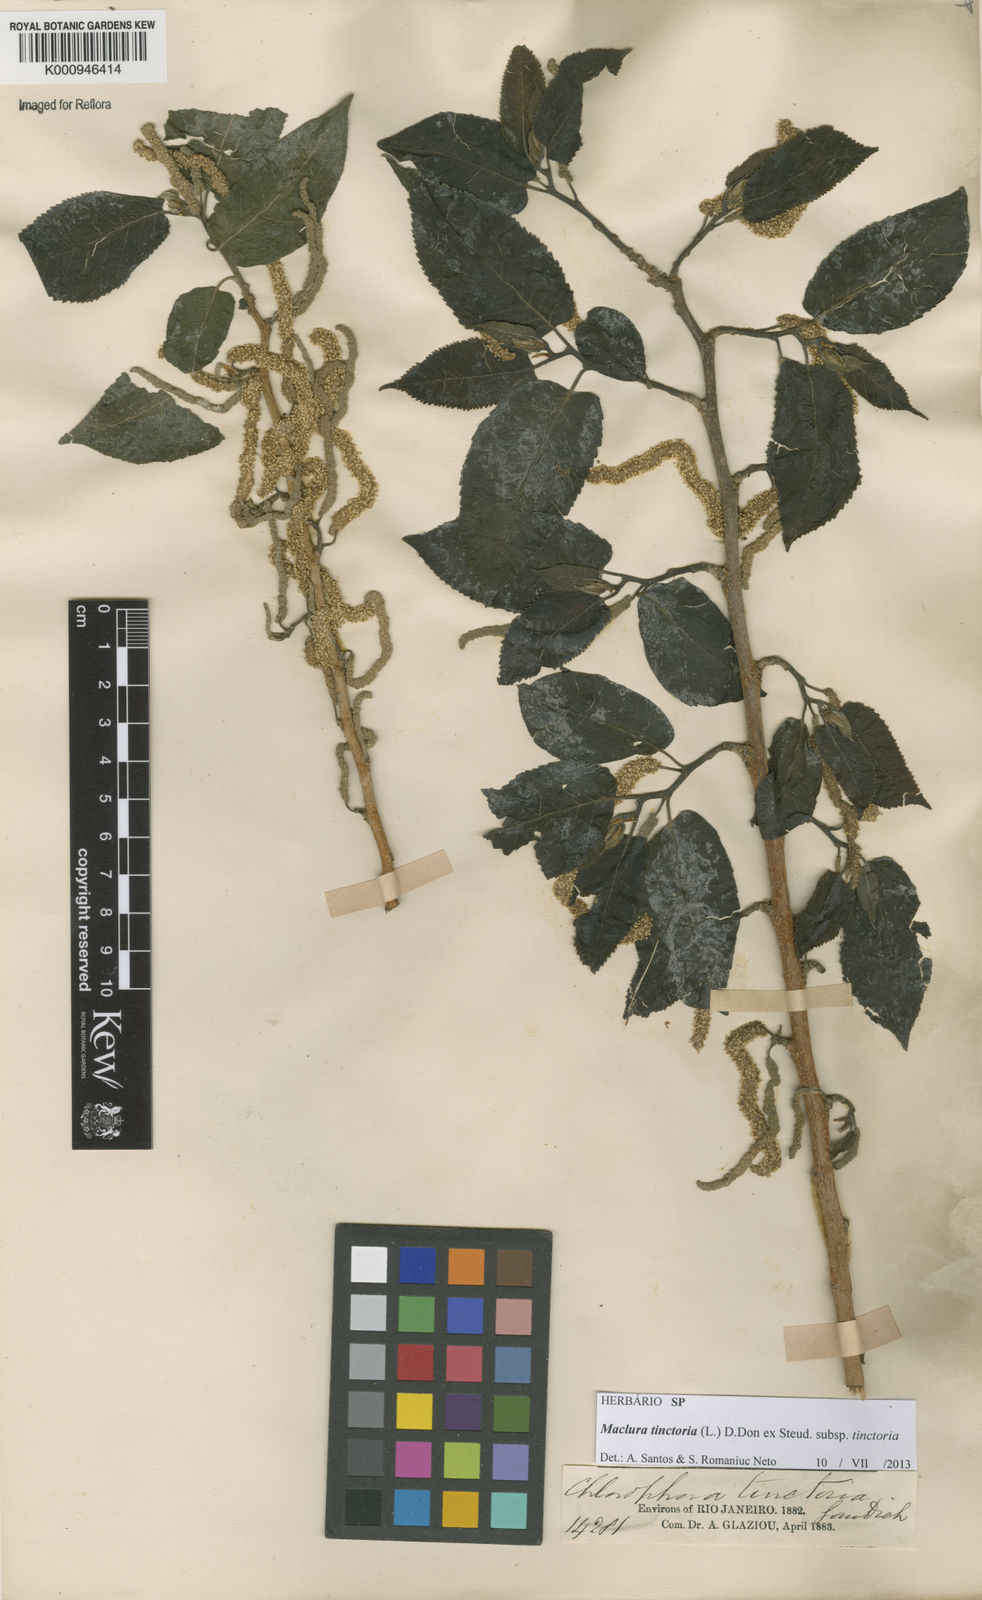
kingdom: Plantae
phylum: Tracheophyta
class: Magnoliopsida
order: Rosales
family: Moraceae
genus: Maclura
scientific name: Maclura tinctoria
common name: Old fustic
